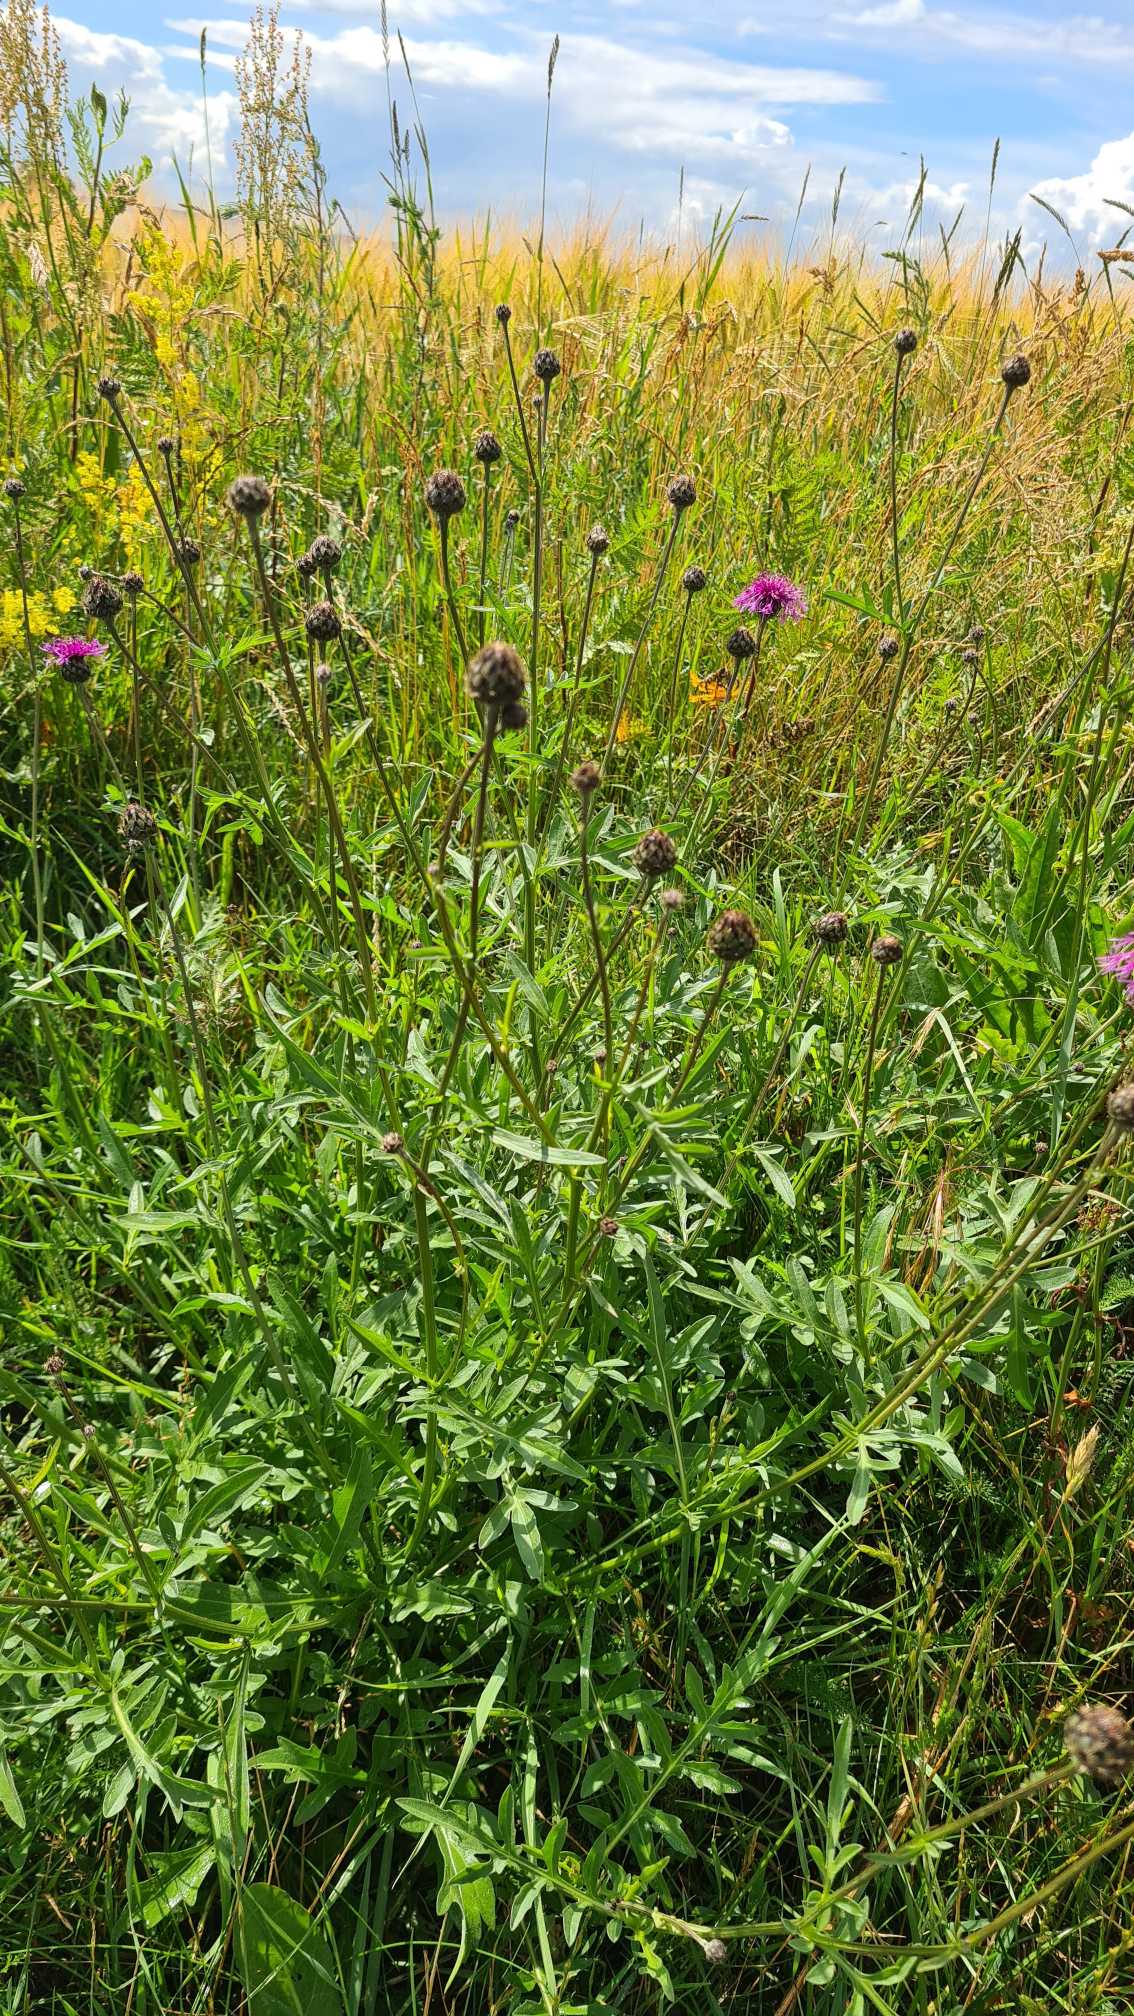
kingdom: Plantae
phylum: Tracheophyta
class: Magnoliopsida
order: Asterales
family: Asteraceae
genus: Centaurea
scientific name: Centaurea scabiosa
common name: Stor knopurt
